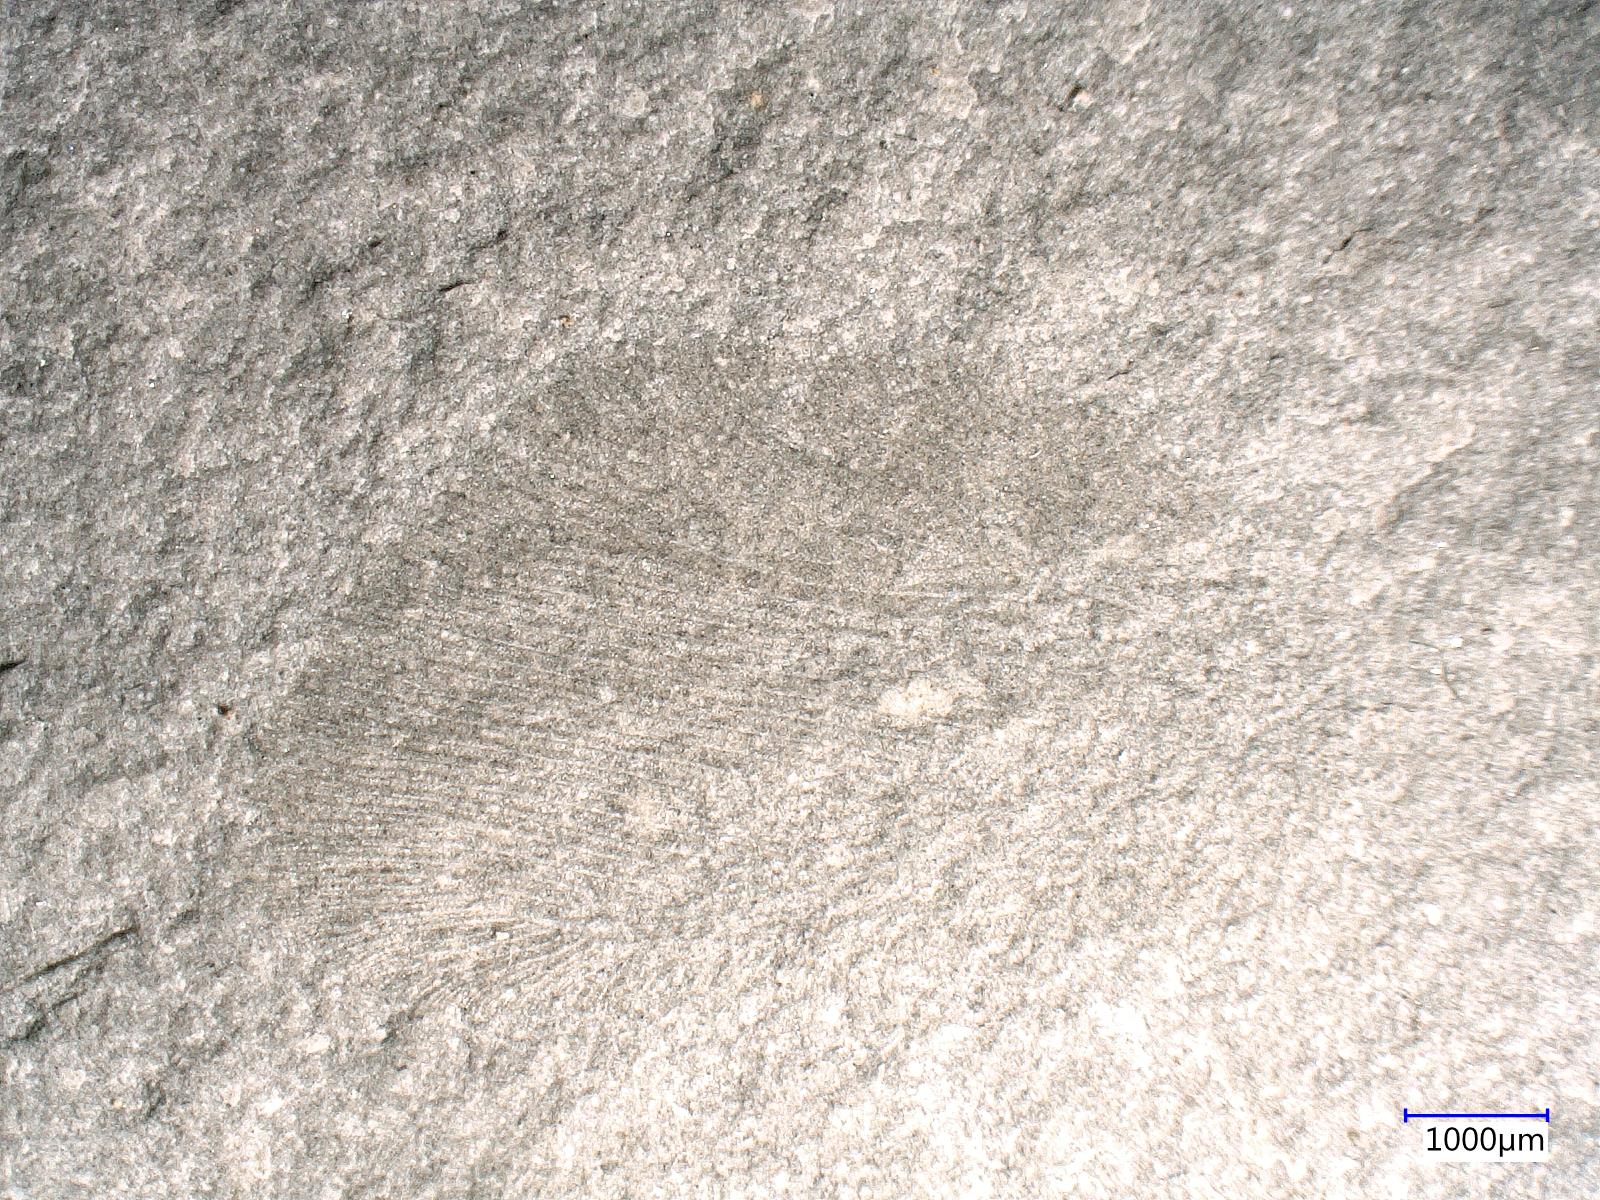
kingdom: Animalia
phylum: Arthropoda
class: Insecta
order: Neuroptera
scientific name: Neuroptera
